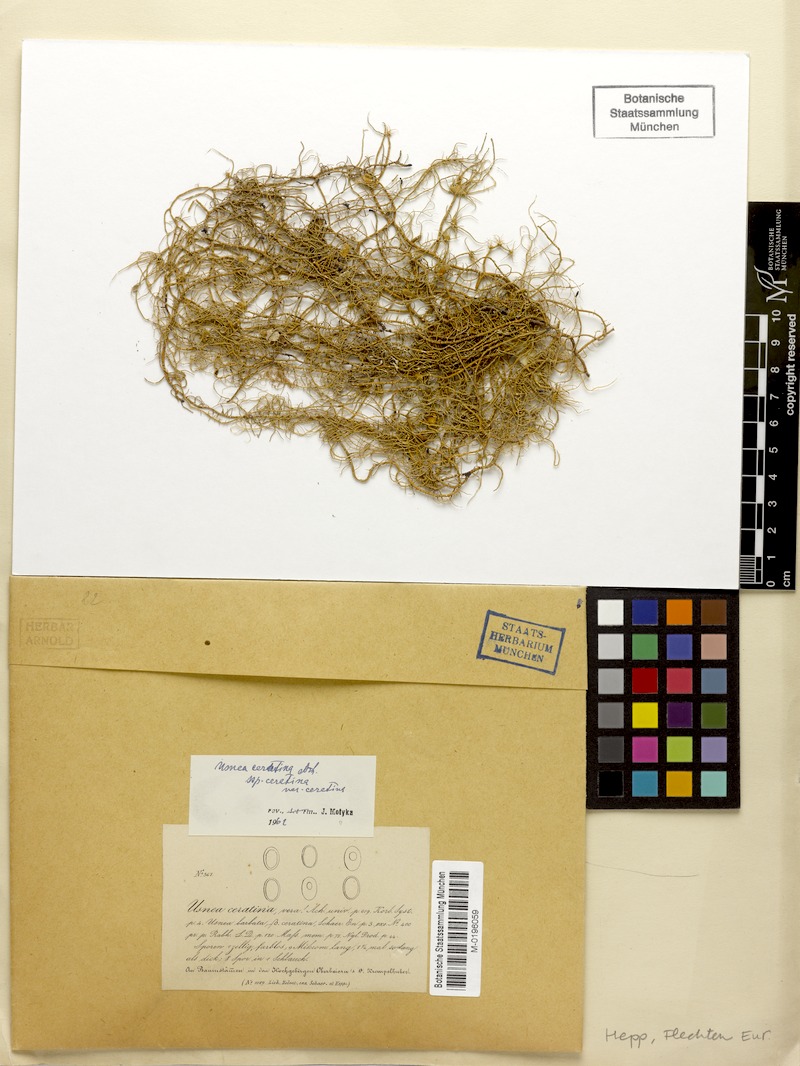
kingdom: Fungi
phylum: Ascomycota
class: Lecanoromycetes
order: Lecanorales
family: Parmeliaceae
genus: Usnea
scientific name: Usnea ceratina
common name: Warty beard lichen
